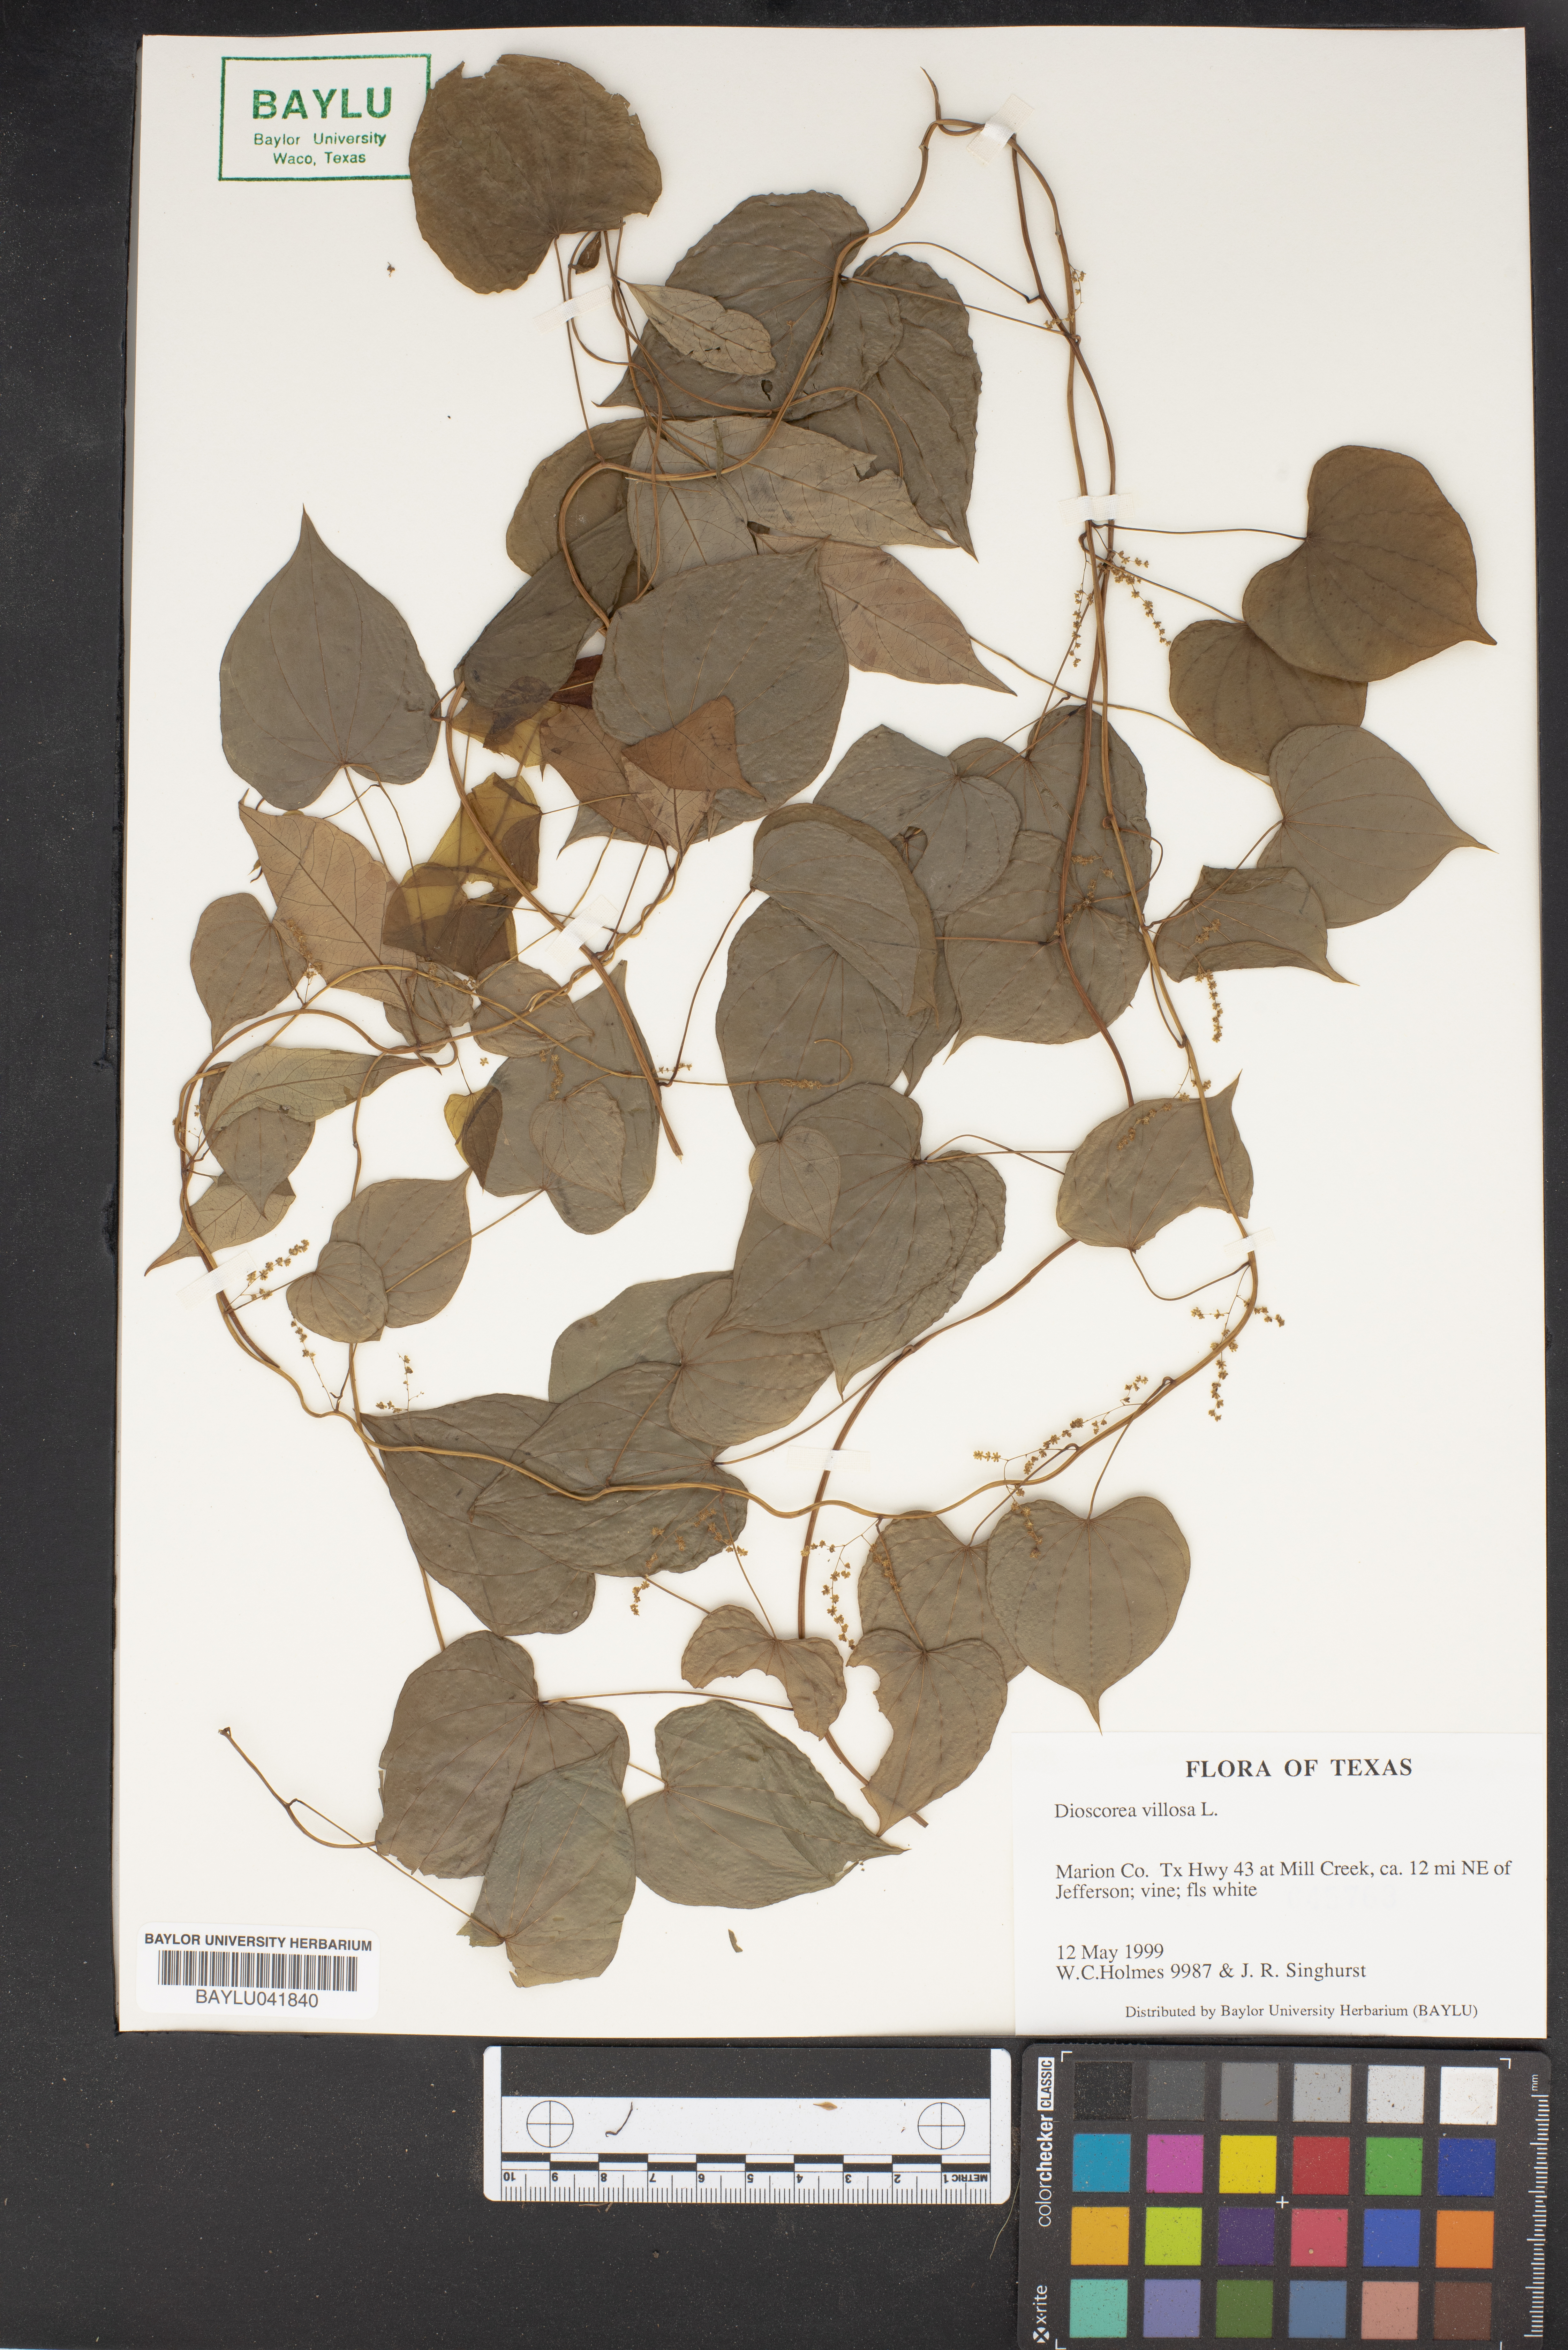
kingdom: Plantae
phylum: Tracheophyta
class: Liliopsida
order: Dioscoreales
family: Dioscoreaceae
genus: Dioscorea
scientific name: Dioscorea villosa
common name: Wild yam
